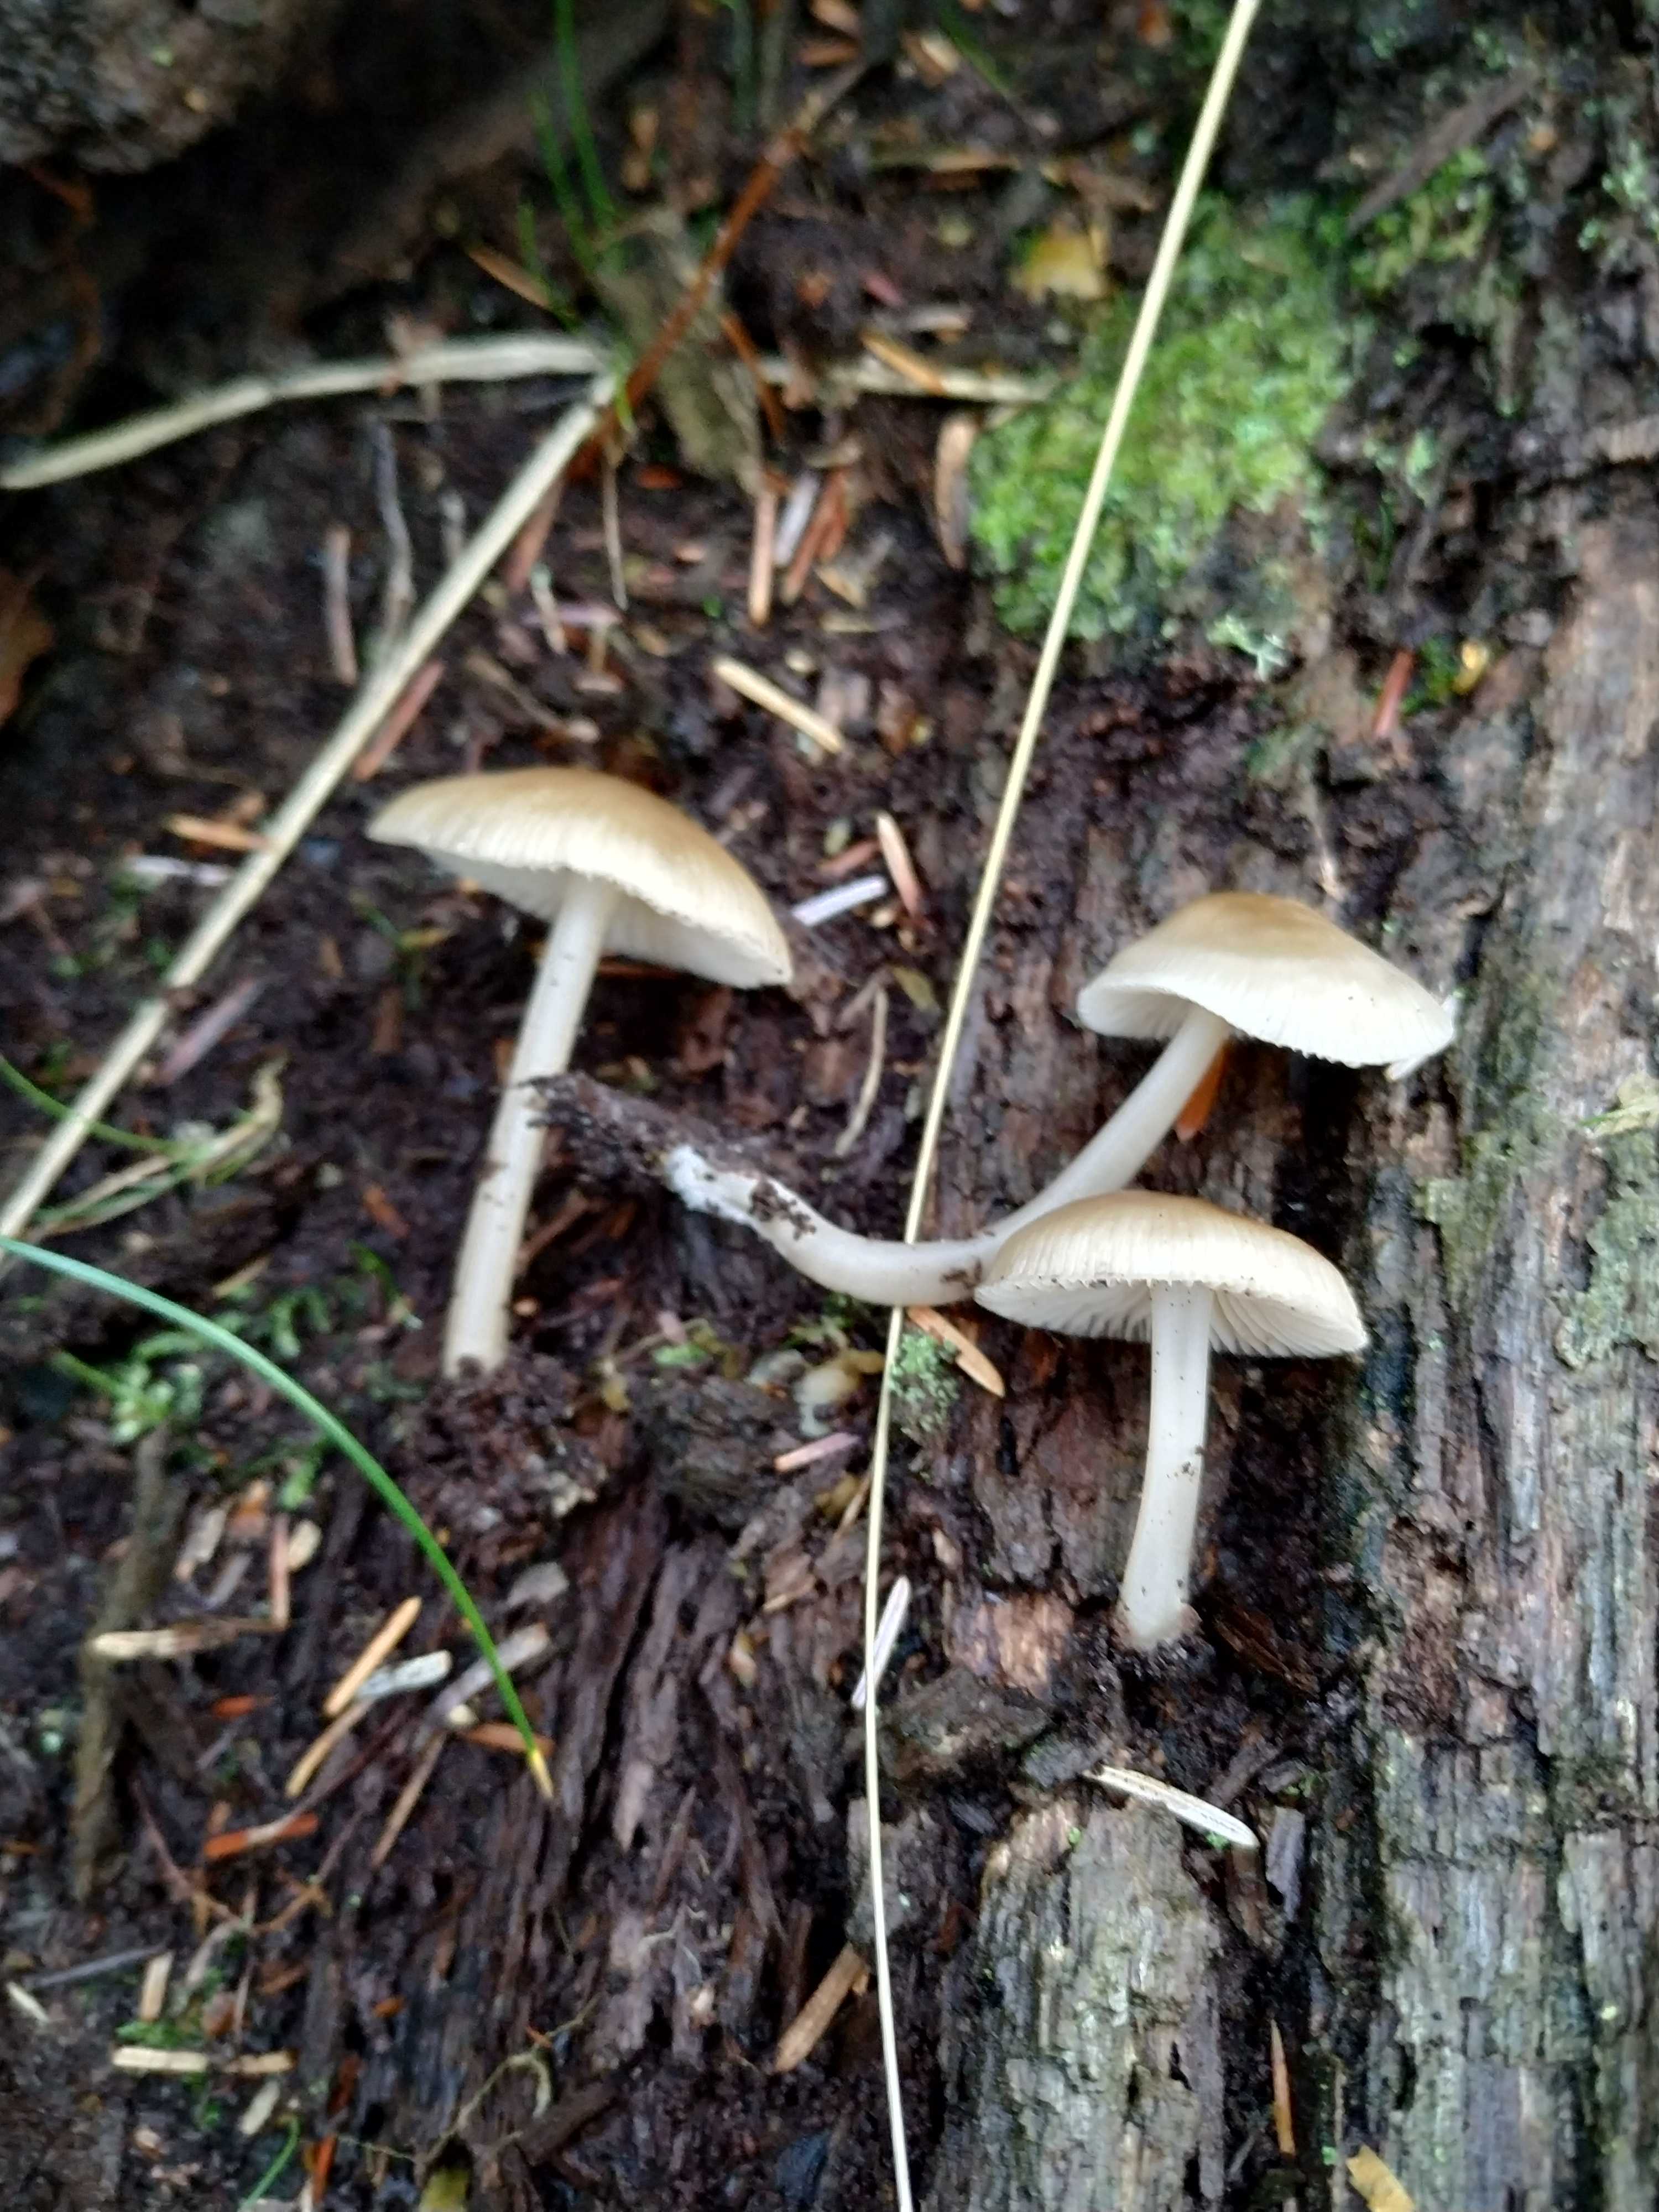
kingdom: Fungi
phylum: Basidiomycota
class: Agaricomycetes
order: Agaricales
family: Mycenaceae
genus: Mycena
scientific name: Mycena galericulata
